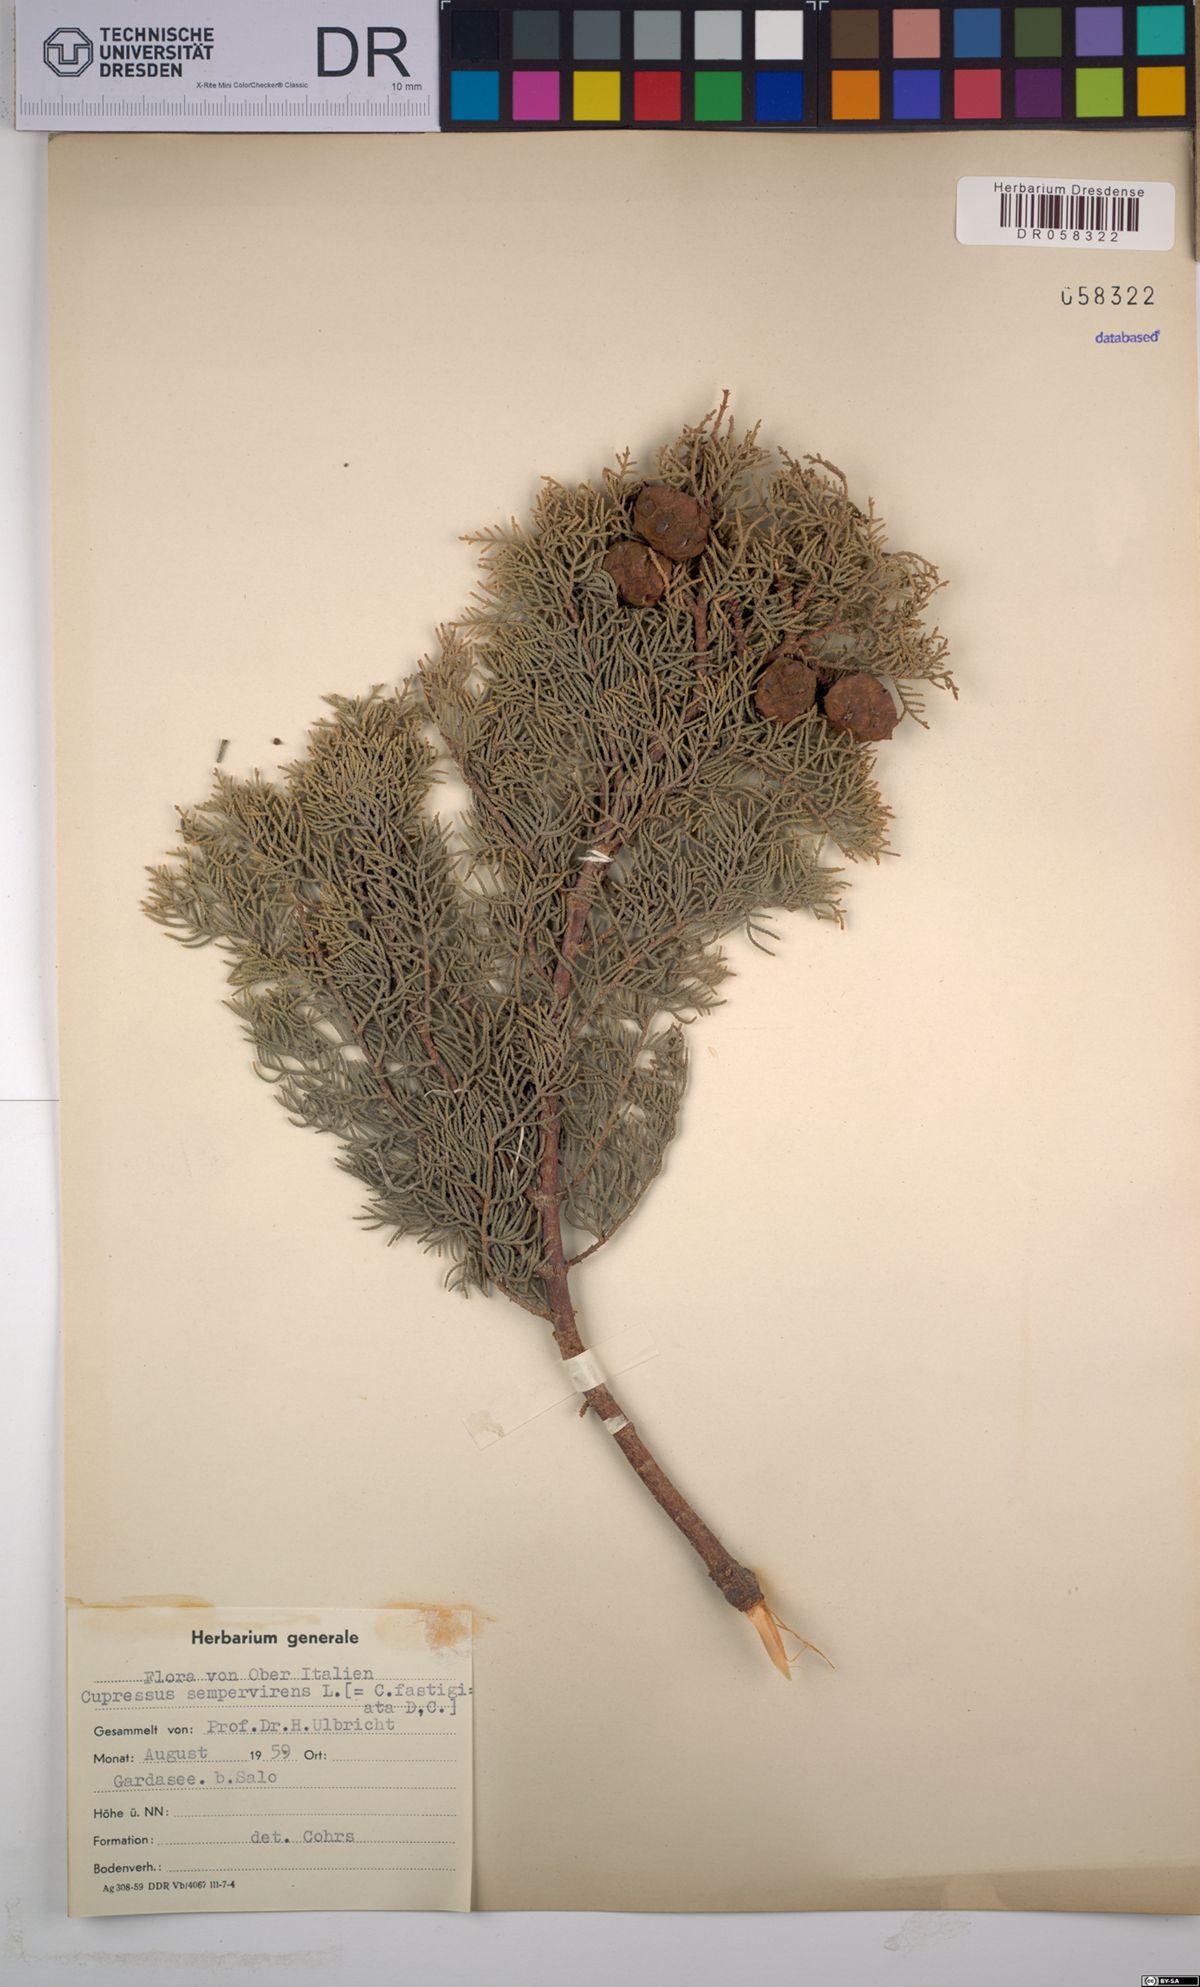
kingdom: Plantae
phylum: Tracheophyta
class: Pinopsida
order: Pinales
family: Cupressaceae
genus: Cupressus
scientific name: Cupressus sempervirens
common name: Italian cypress
